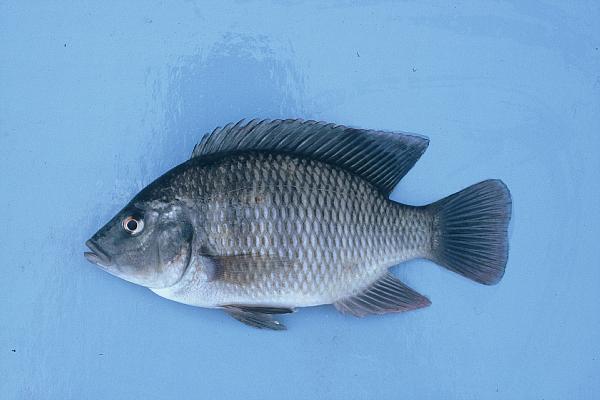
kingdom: Animalia
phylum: Chordata
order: Perciformes
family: Cichlidae
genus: Sargochromis
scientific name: Sargochromis
